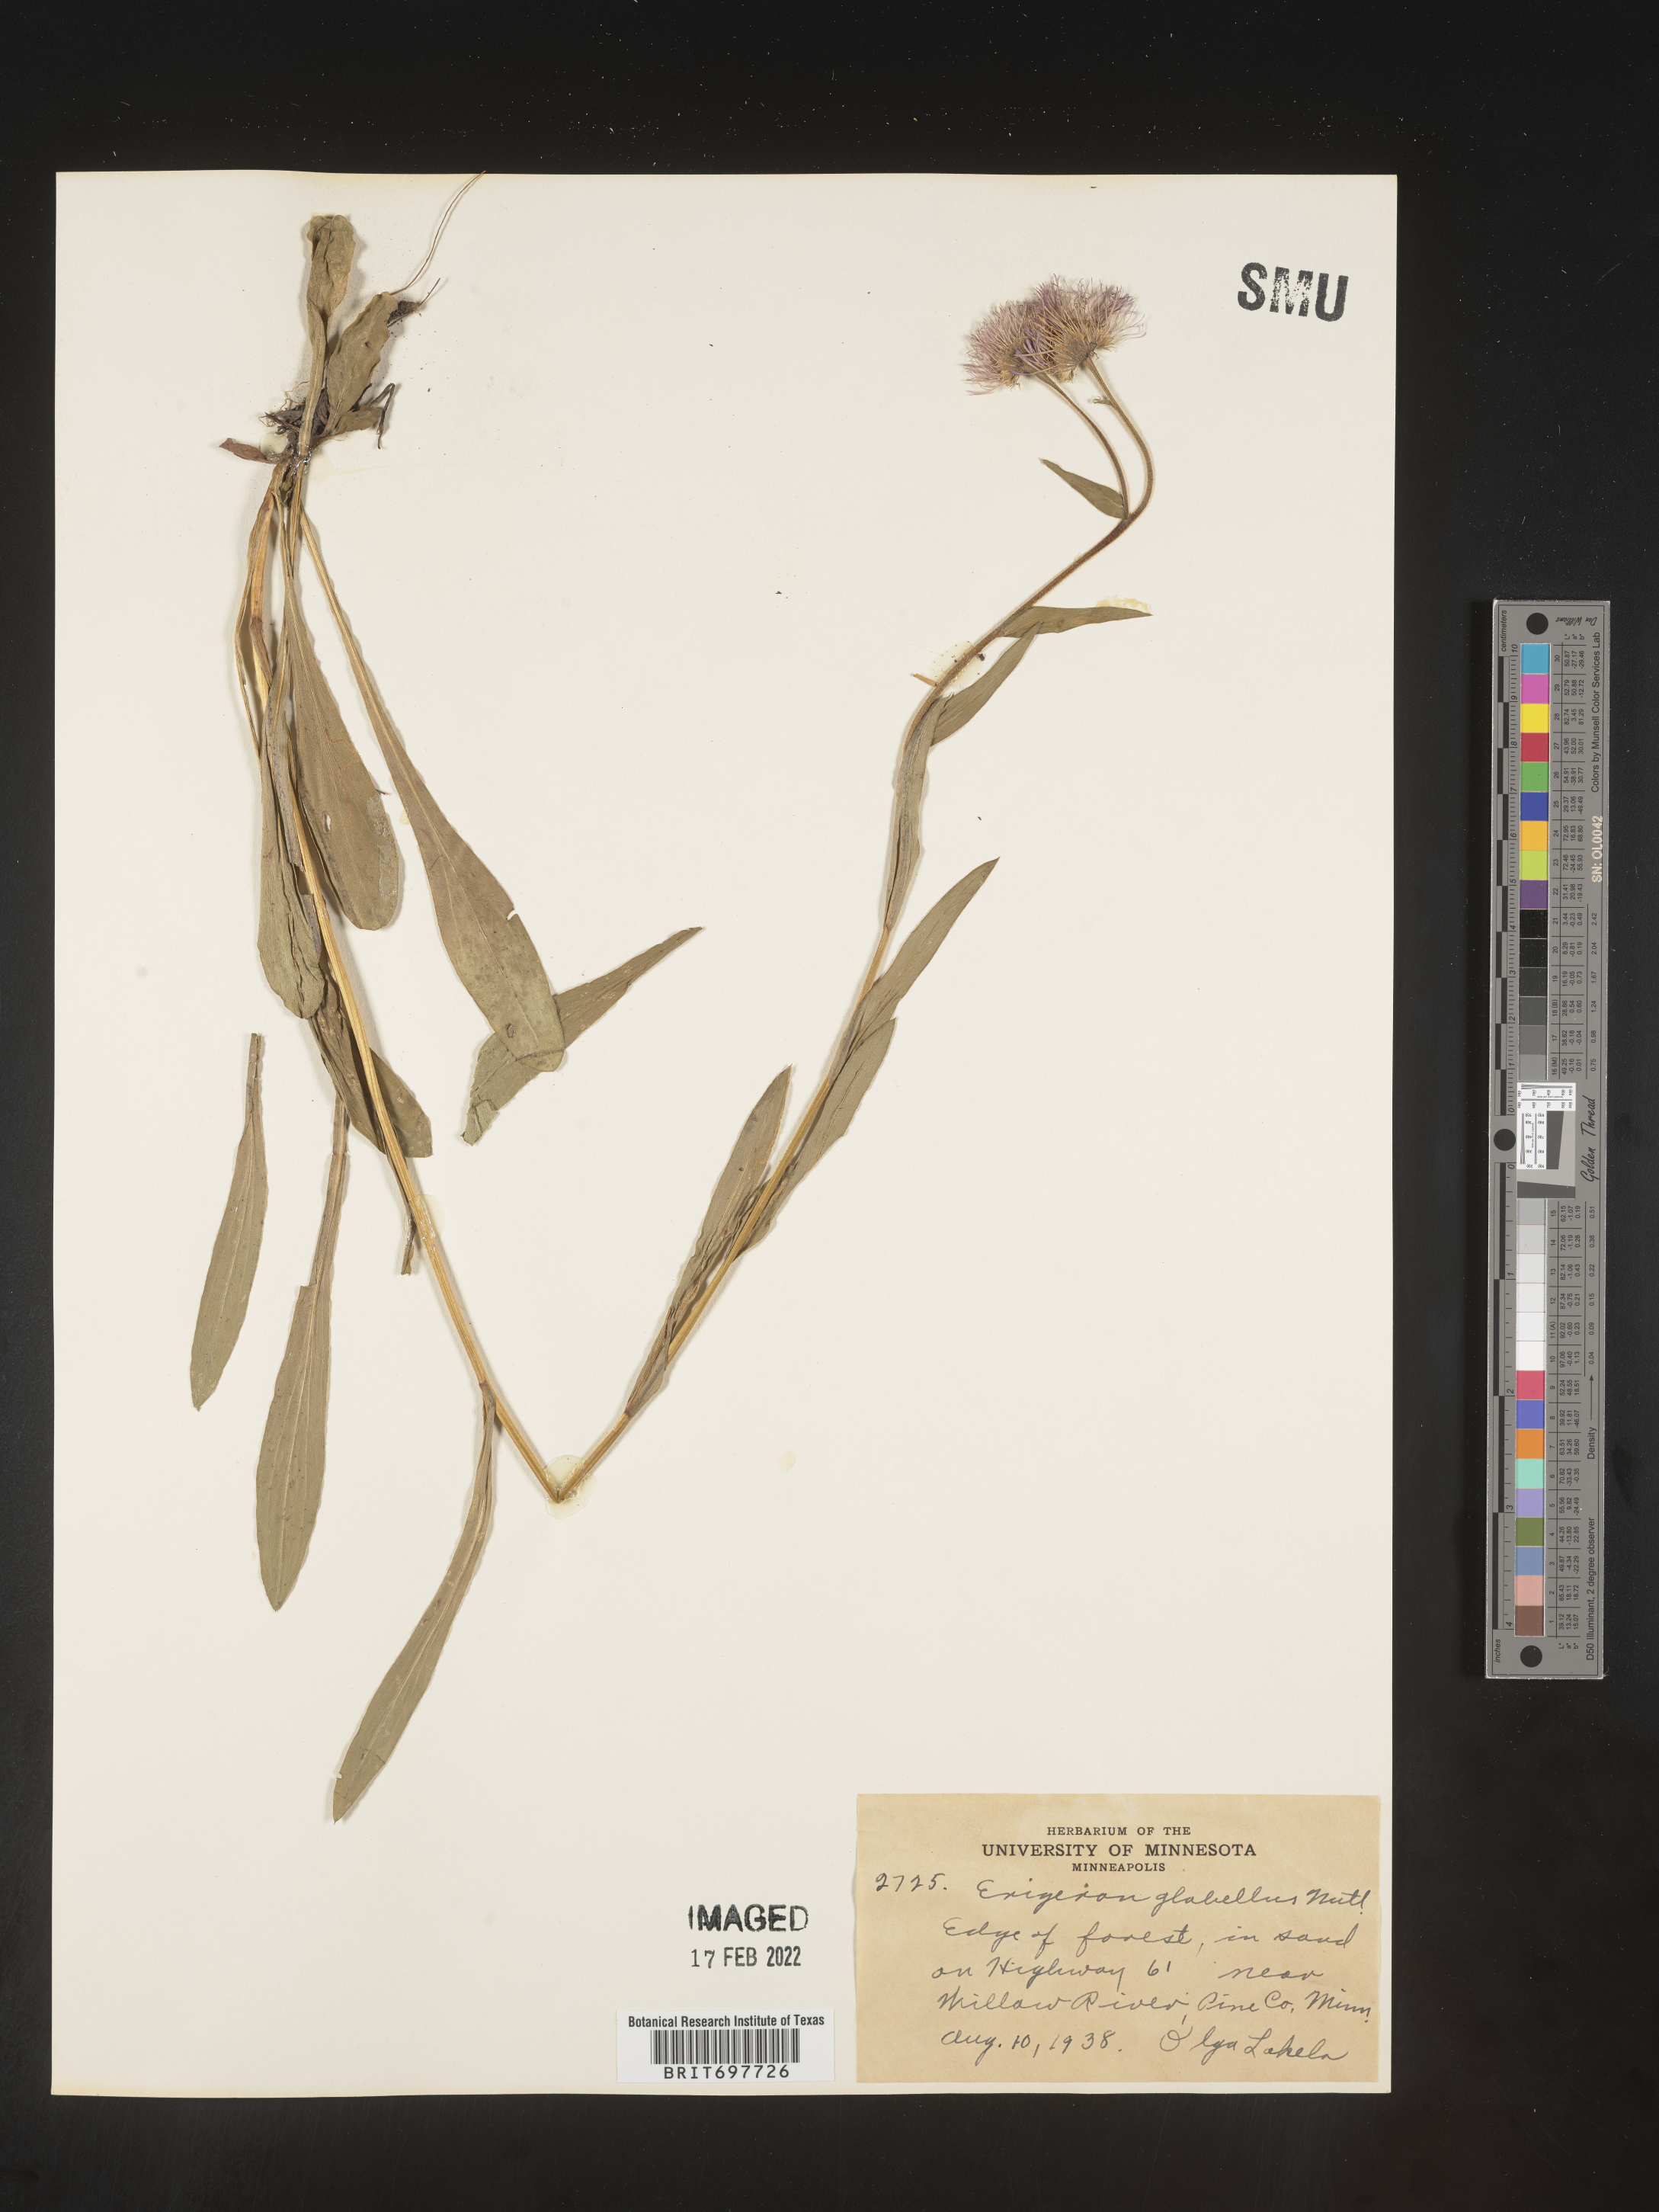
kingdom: Plantae
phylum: Tracheophyta
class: Magnoliopsida
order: Asterales
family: Asteraceae
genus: Erigeron
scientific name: Erigeron glabellus
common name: Smooth fleabane
